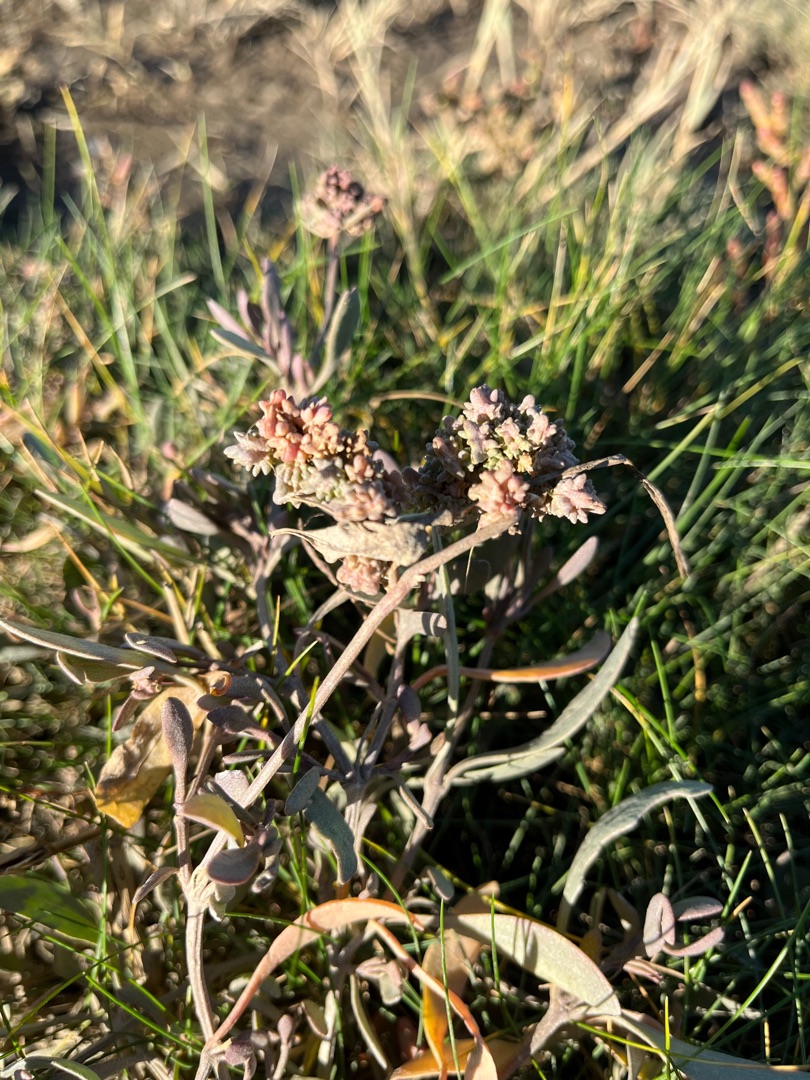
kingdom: Plantae
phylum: Tracheophyta
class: Magnoliopsida
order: Caryophyllales
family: Amaranthaceae
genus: Halimione
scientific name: Halimione portulacoides
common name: Stilkløs kilebæger
